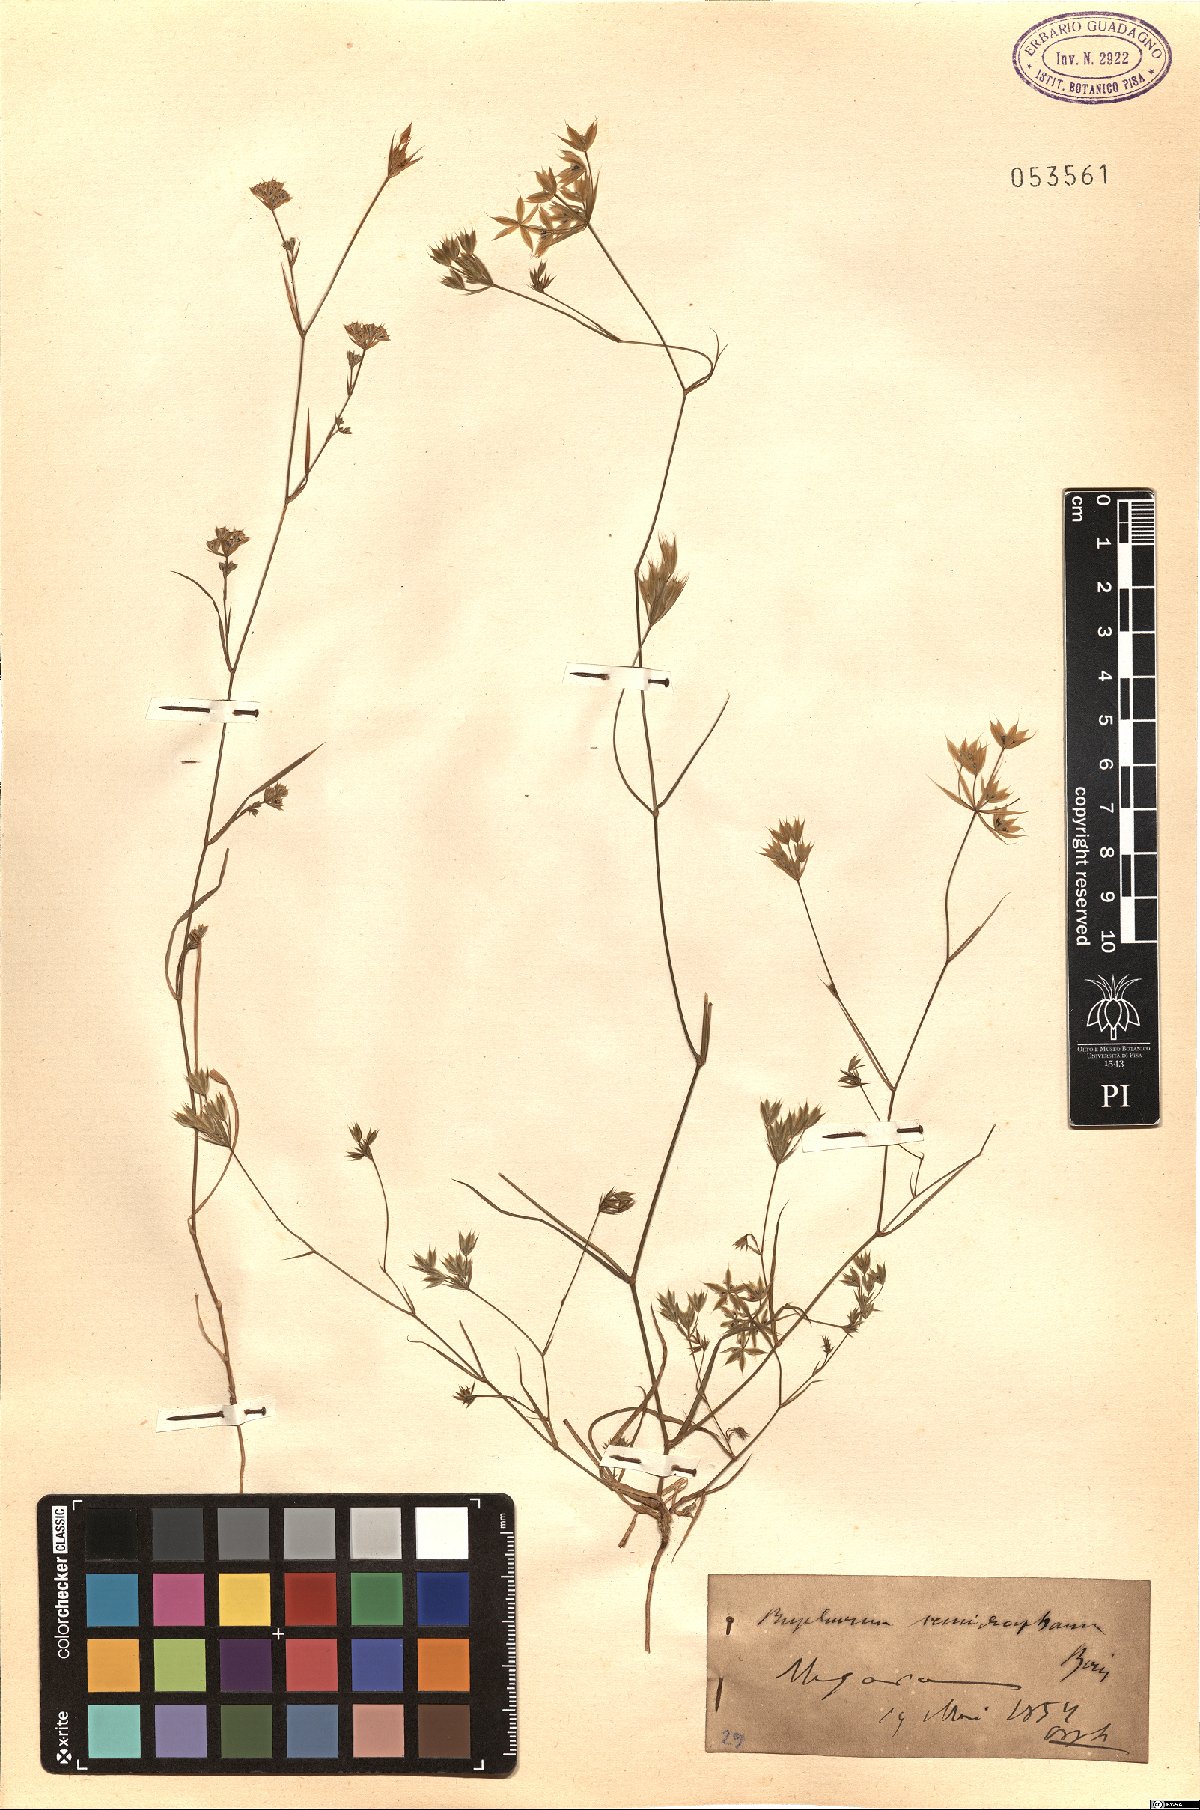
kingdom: Plantae
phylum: Tracheophyta
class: Magnoliopsida
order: Apiales
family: Apiaceae
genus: Bupleurum
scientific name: Bupleurum glumaceum
